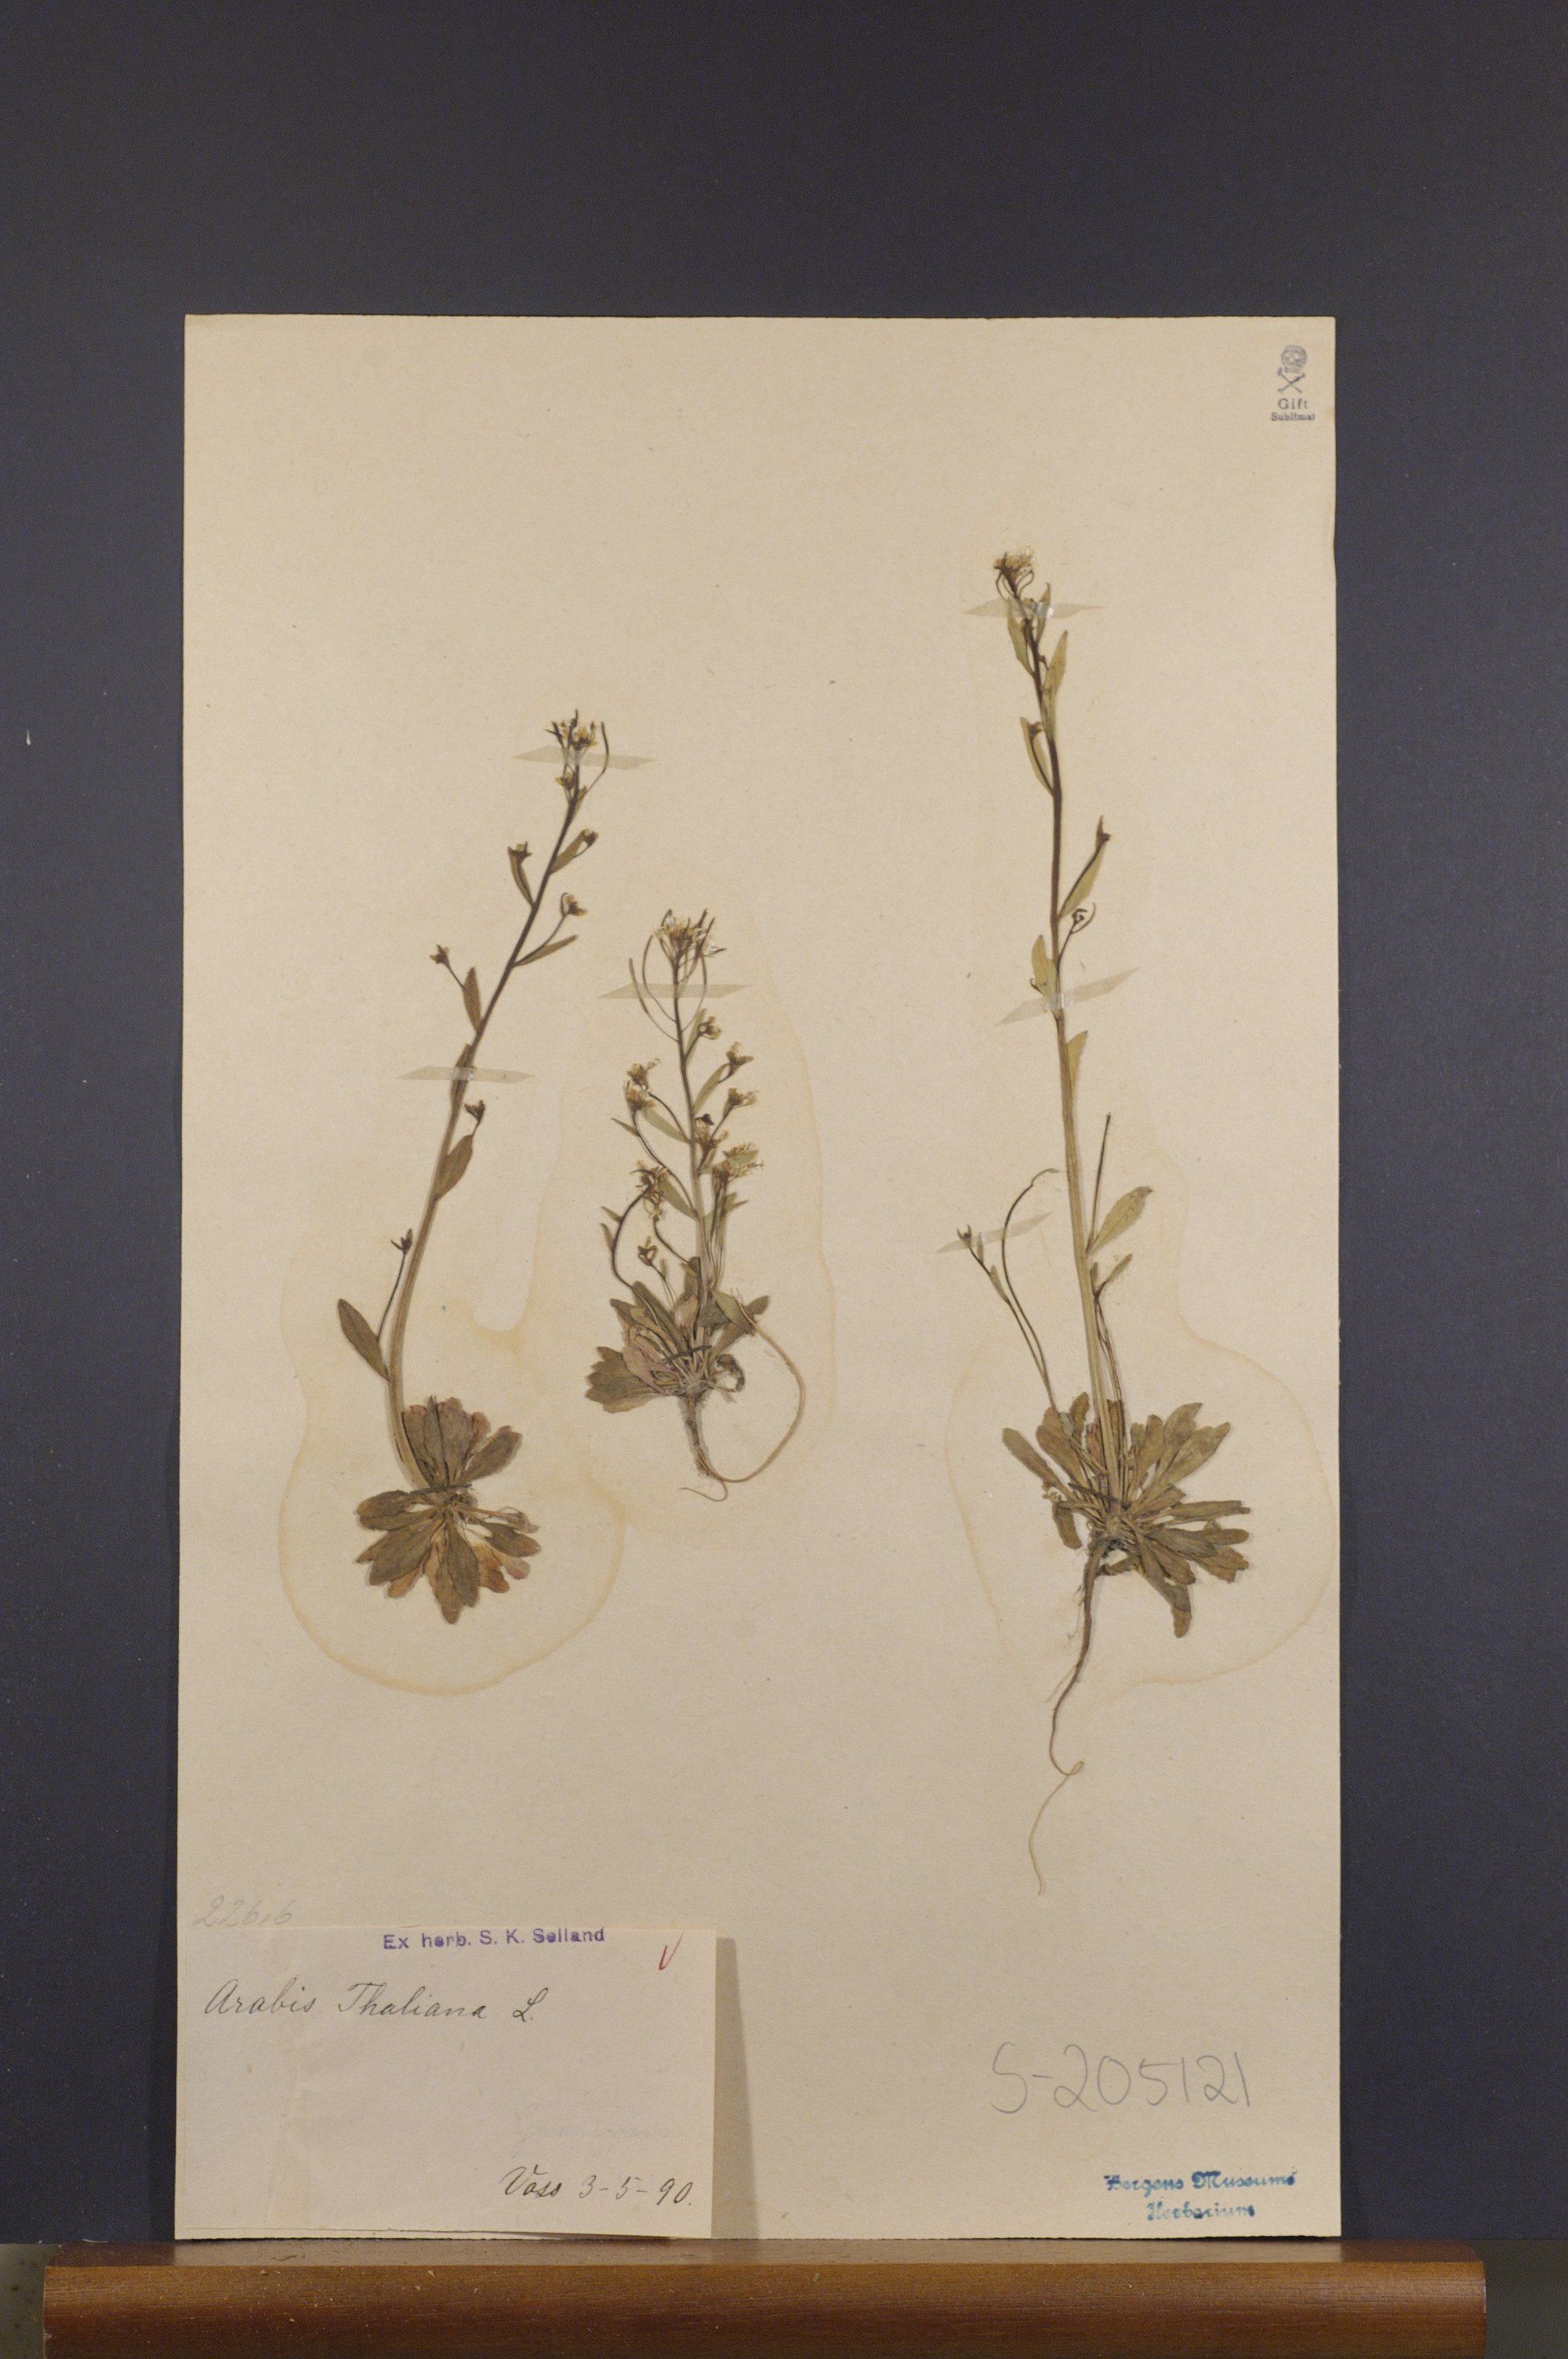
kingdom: Plantae
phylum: Tracheophyta
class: Magnoliopsida
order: Brassicales
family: Brassicaceae
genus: Arabidopsis
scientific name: Arabidopsis thaliana
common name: Thale cress
